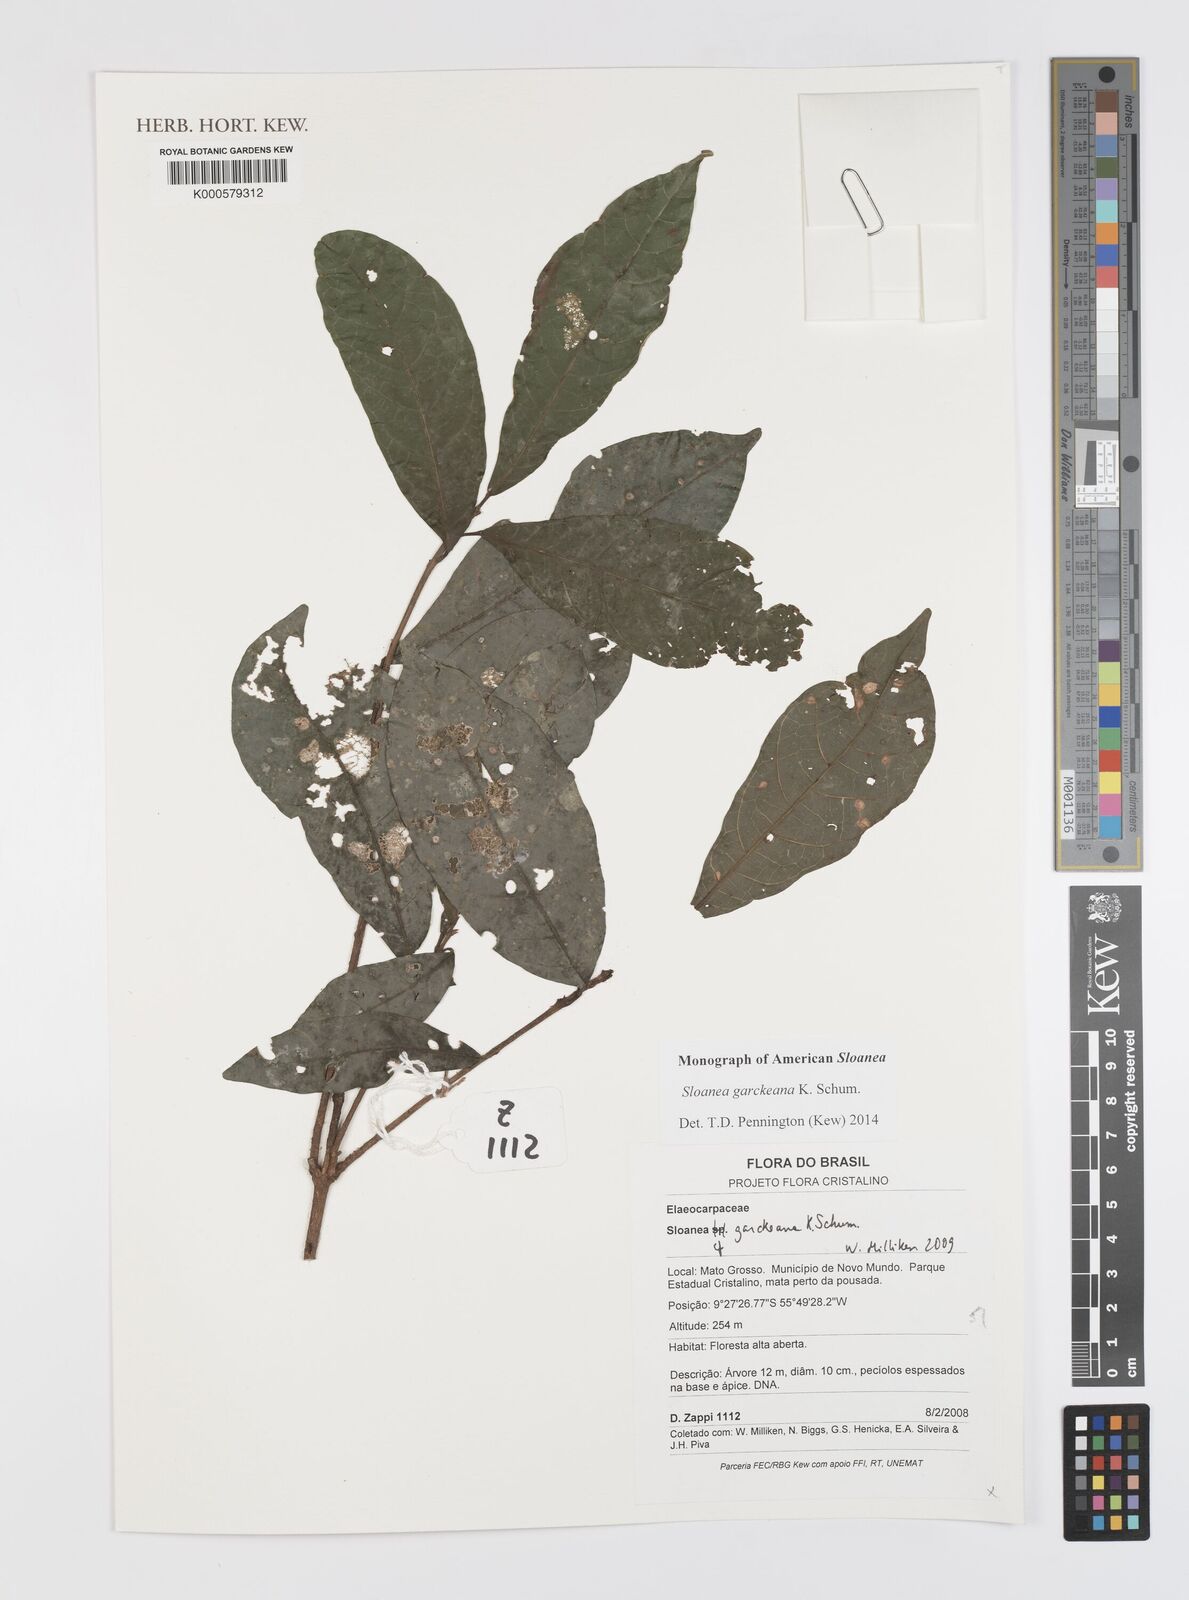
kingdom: Plantae
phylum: Tracheophyta
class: Magnoliopsida
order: Oxalidales
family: Elaeocarpaceae
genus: Sloanea
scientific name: Sloanea garckeana
